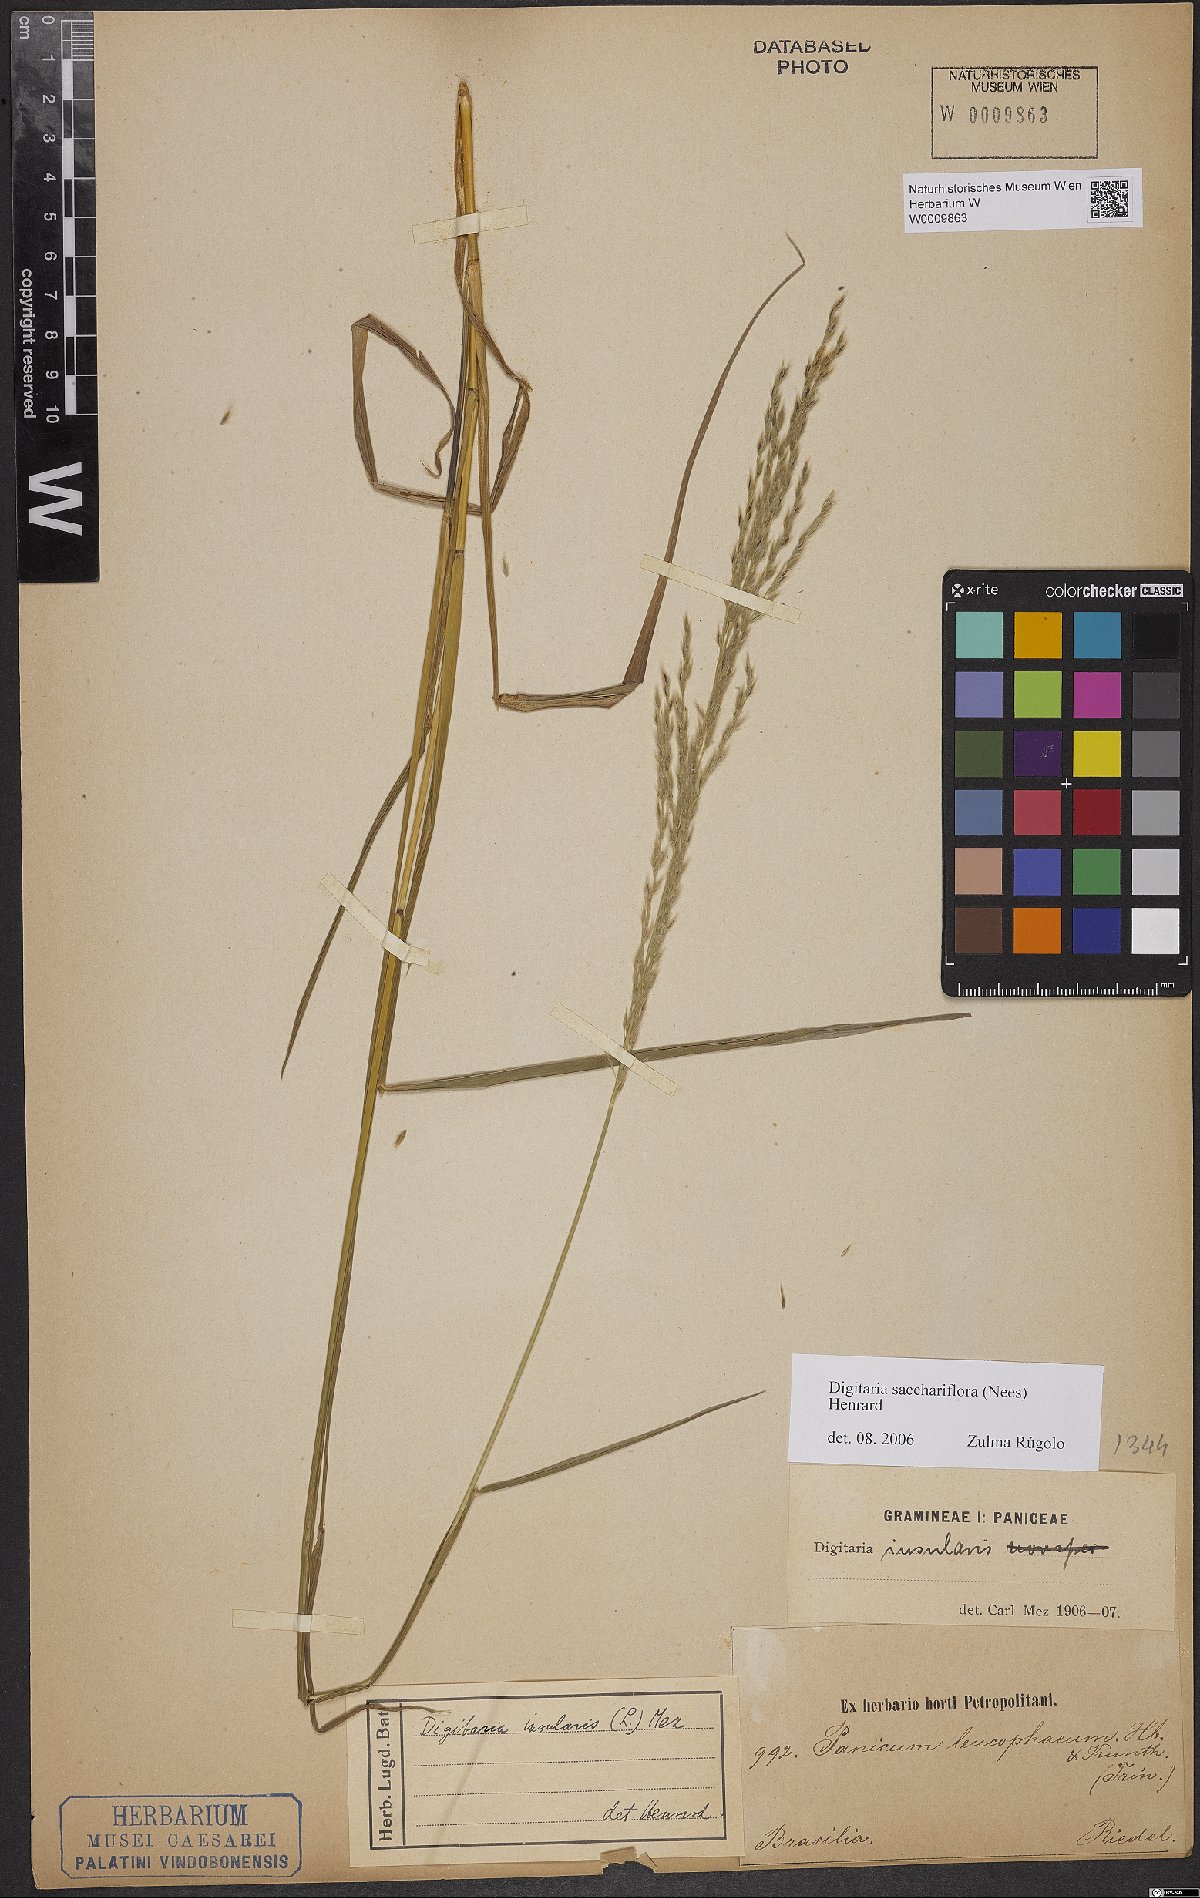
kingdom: Plantae
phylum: Tracheophyta
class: Liliopsida
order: Poales
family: Poaceae
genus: Digitaria
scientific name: Digitaria sacchariflora
